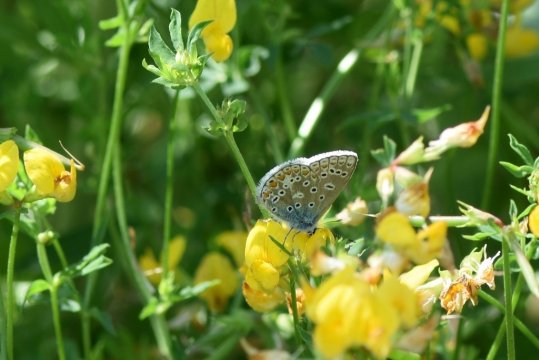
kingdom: Animalia
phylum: Arthropoda
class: Insecta
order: Lepidoptera
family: Lycaenidae
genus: Polyommatus
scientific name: Polyommatus icarus
